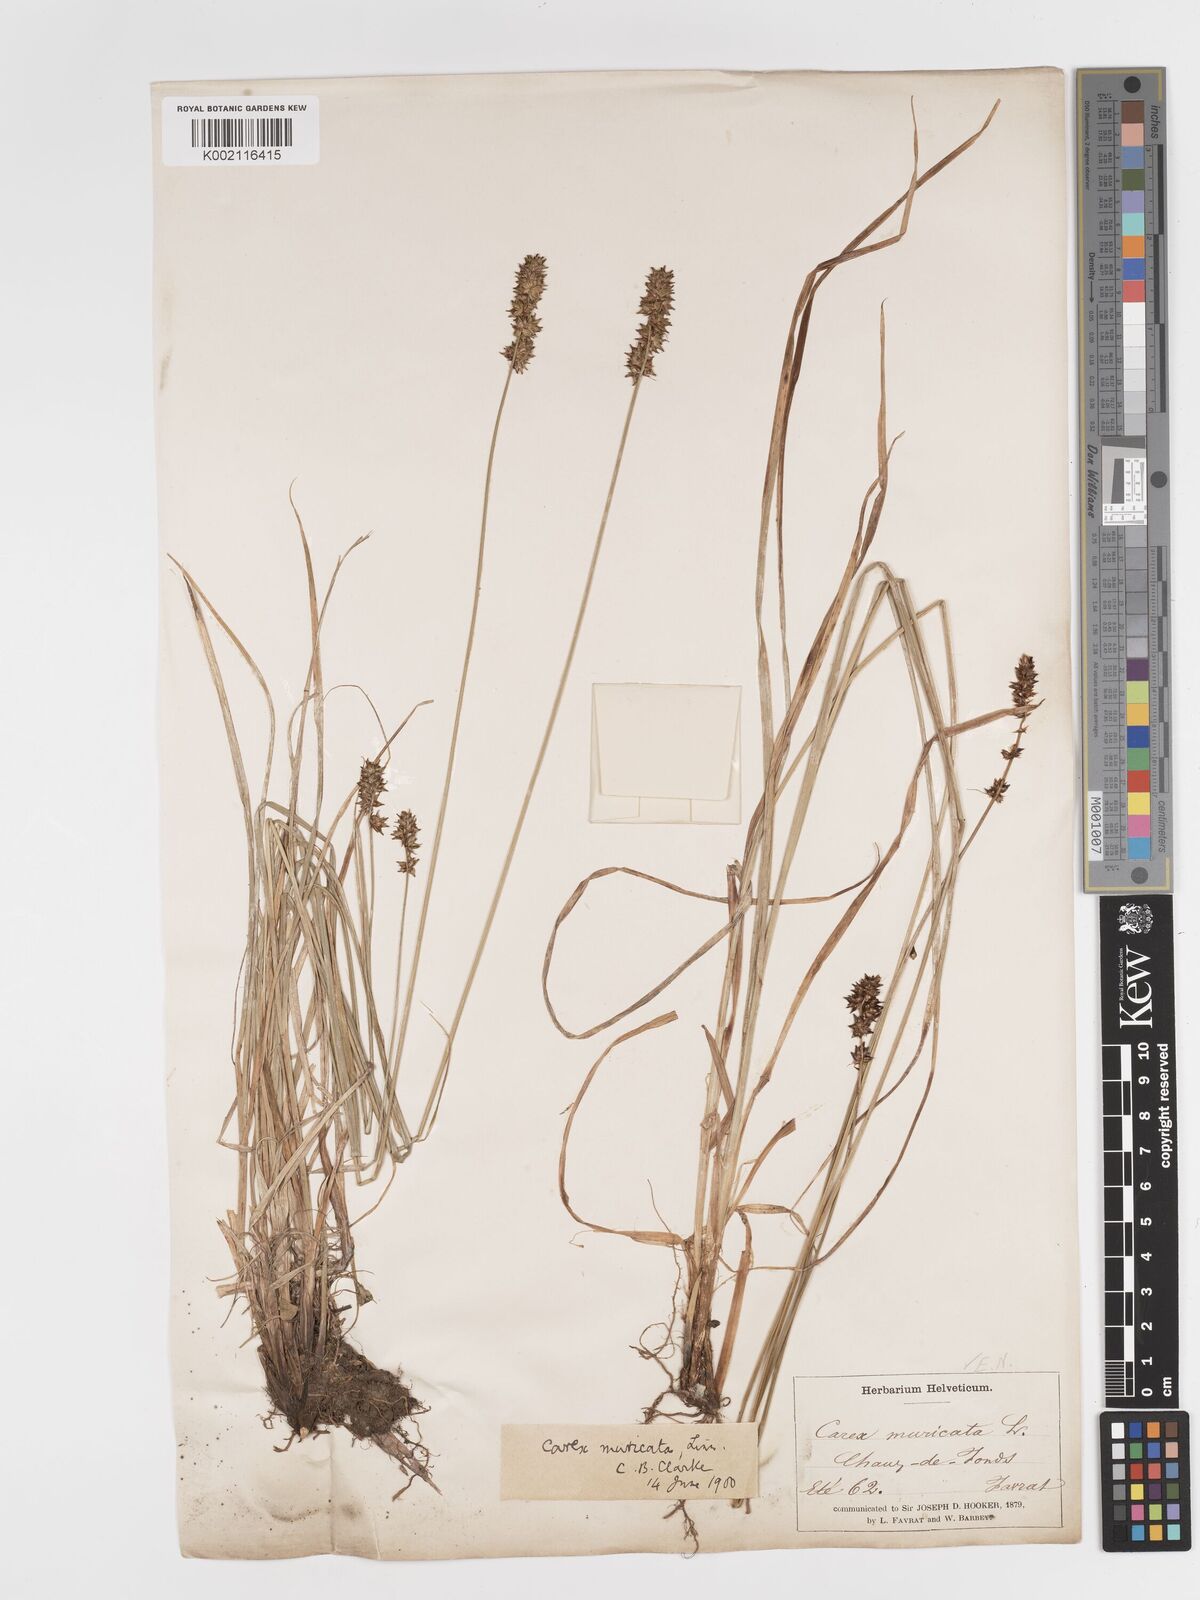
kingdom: Plantae
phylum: Tracheophyta
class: Liliopsida
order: Poales
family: Cyperaceae
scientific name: Cyperaceae
